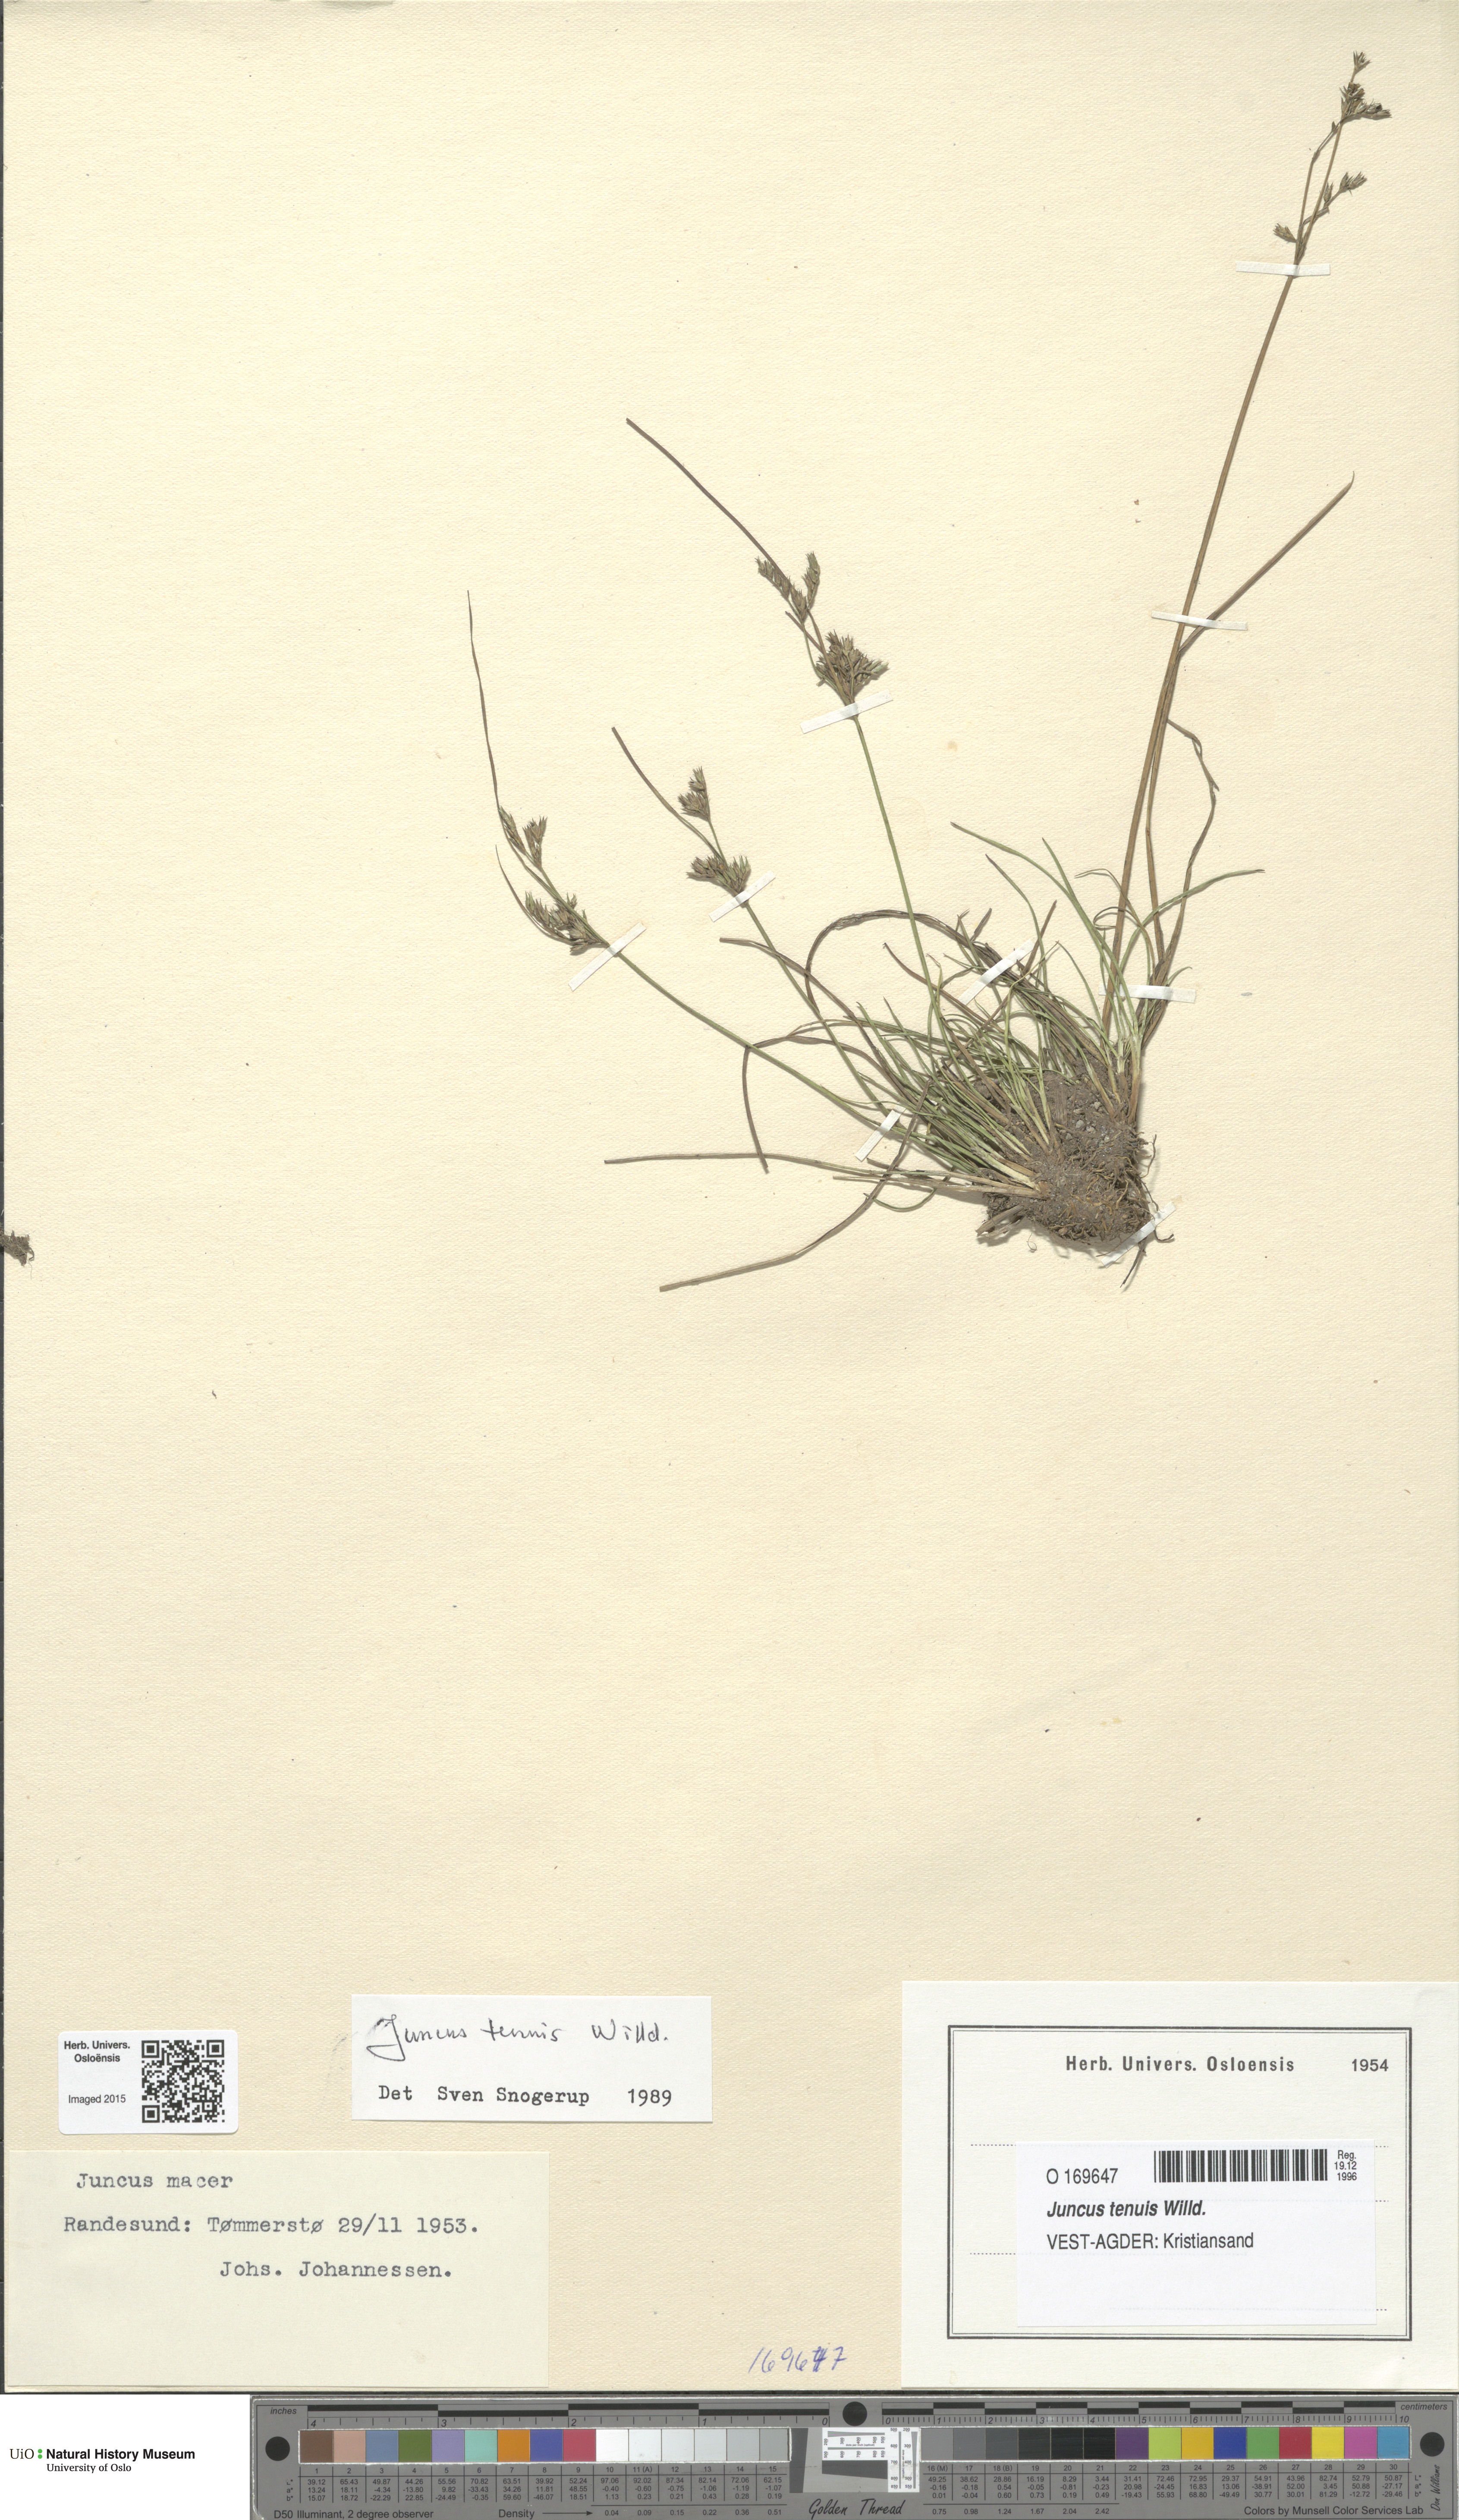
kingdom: Plantae
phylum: Tracheophyta
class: Liliopsida
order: Poales
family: Juncaceae
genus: Juncus
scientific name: Juncus tenuis
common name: Slender rush
